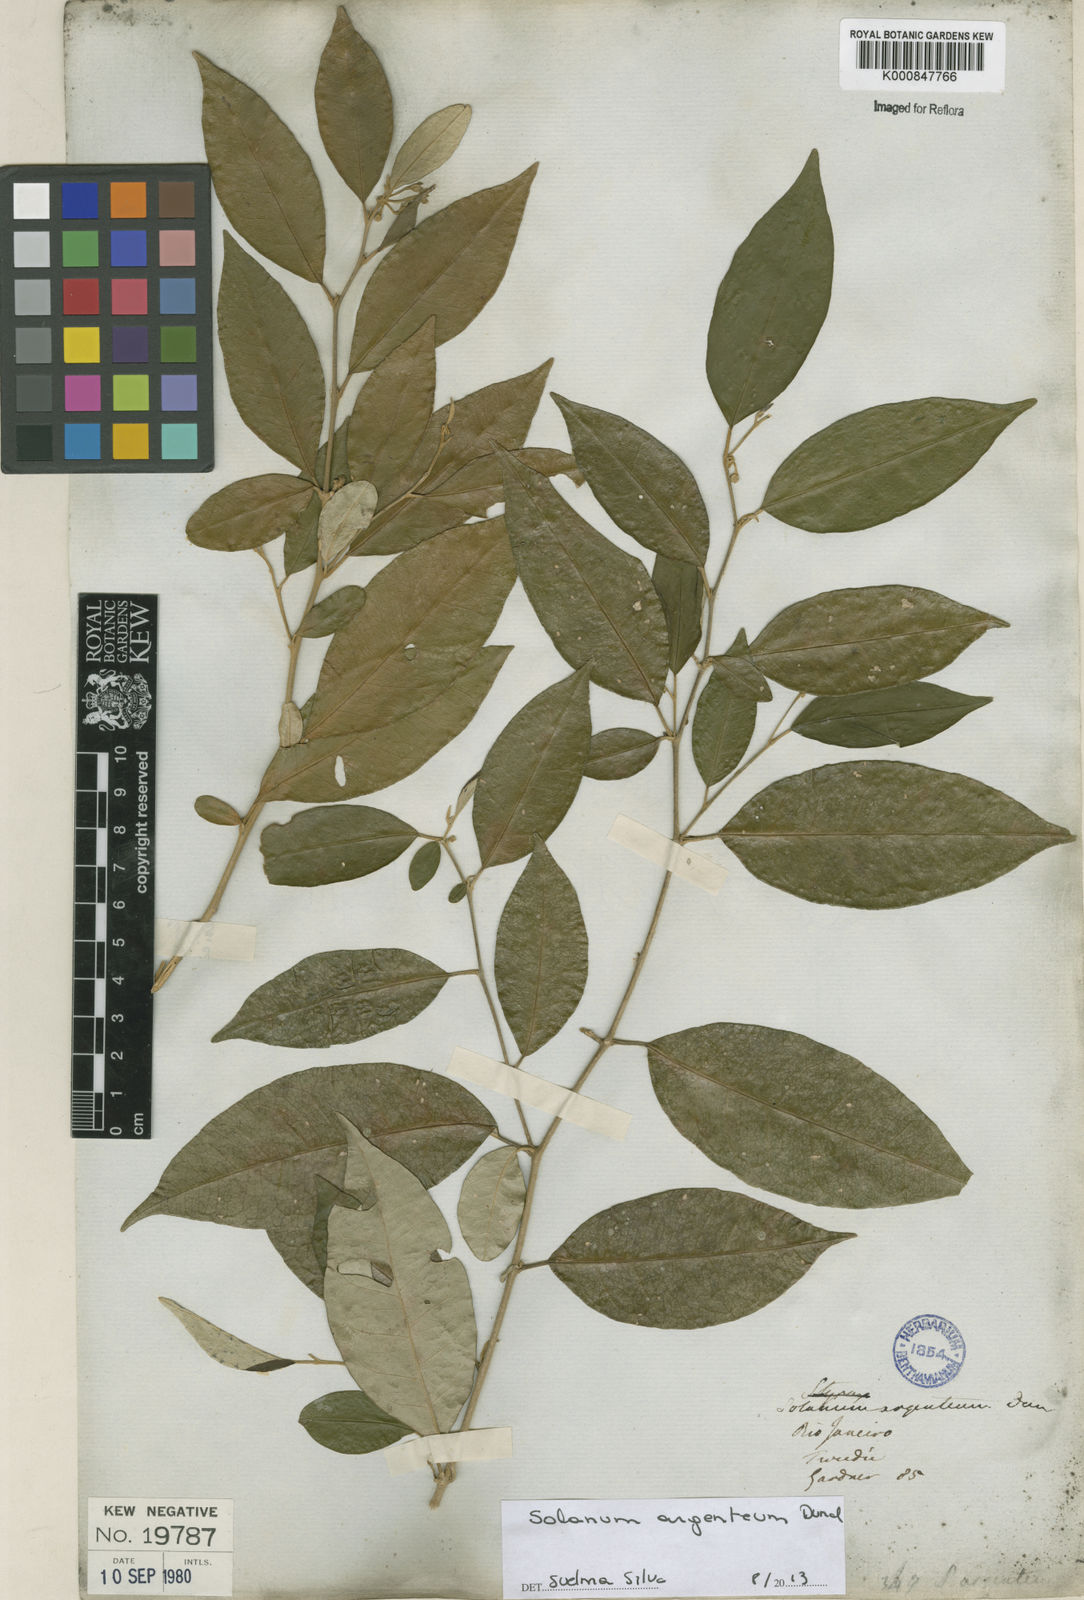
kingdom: Plantae
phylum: Tracheophyta
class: Magnoliopsida
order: Solanales
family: Solanaceae
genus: Solanum
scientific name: Solanum swartzianum
